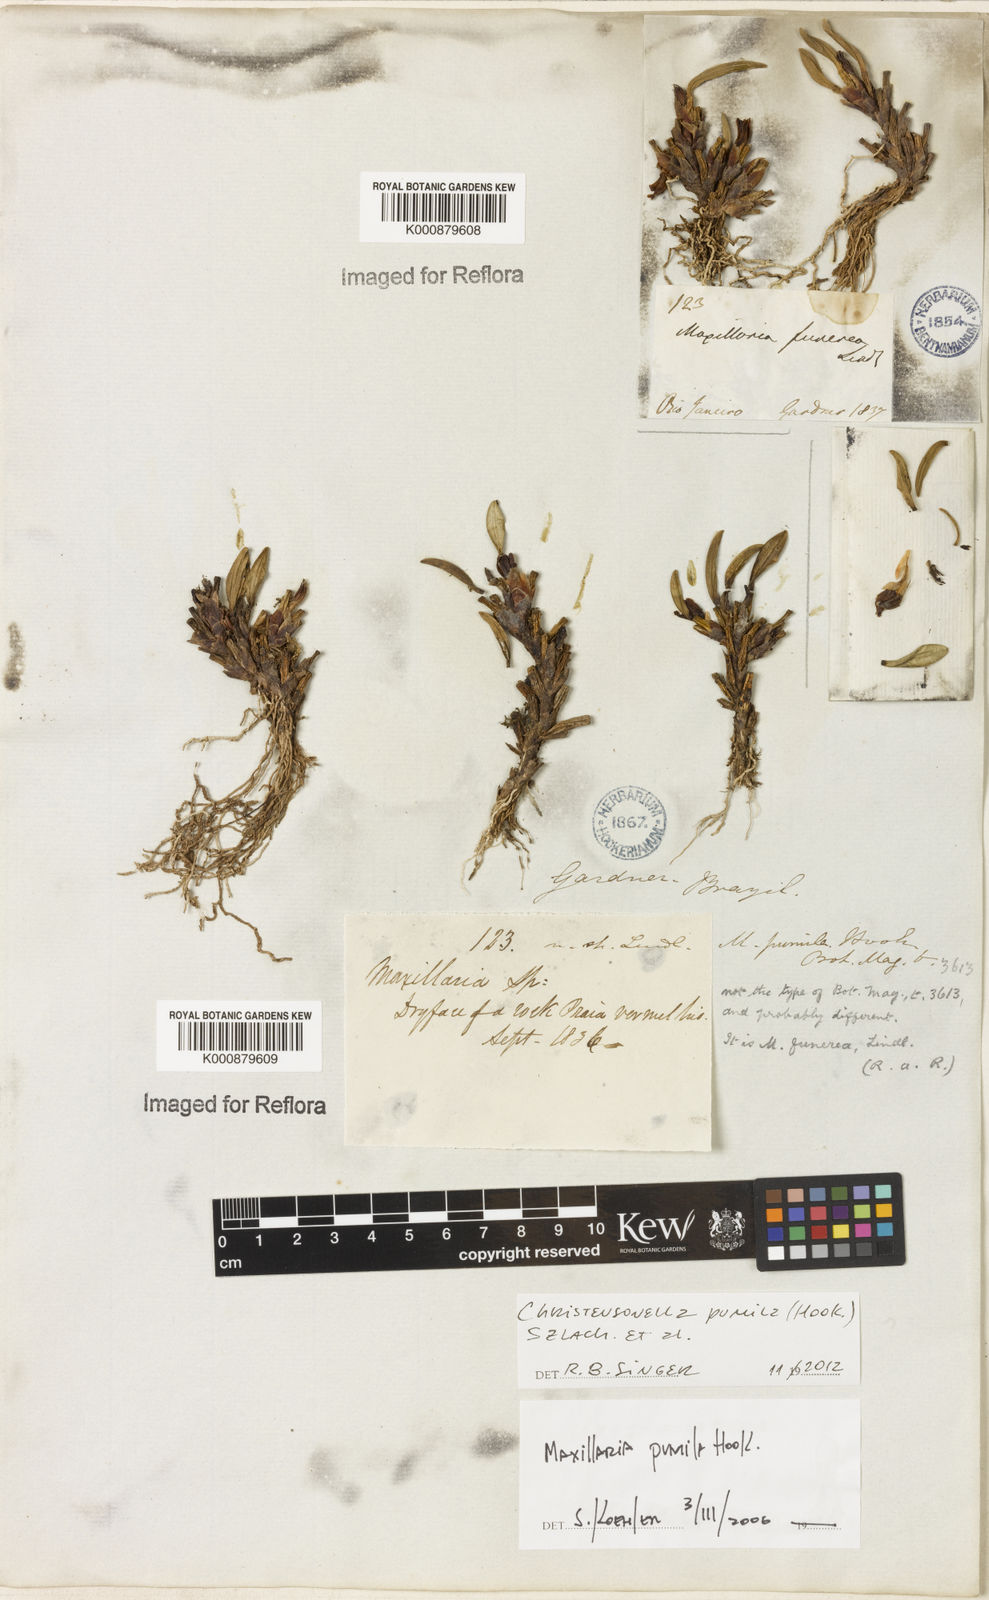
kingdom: Plantae
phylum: Tracheophyta
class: Liliopsida
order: Asparagales
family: Orchidaceae
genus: Maxillaria
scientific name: Maxillaria pumila
